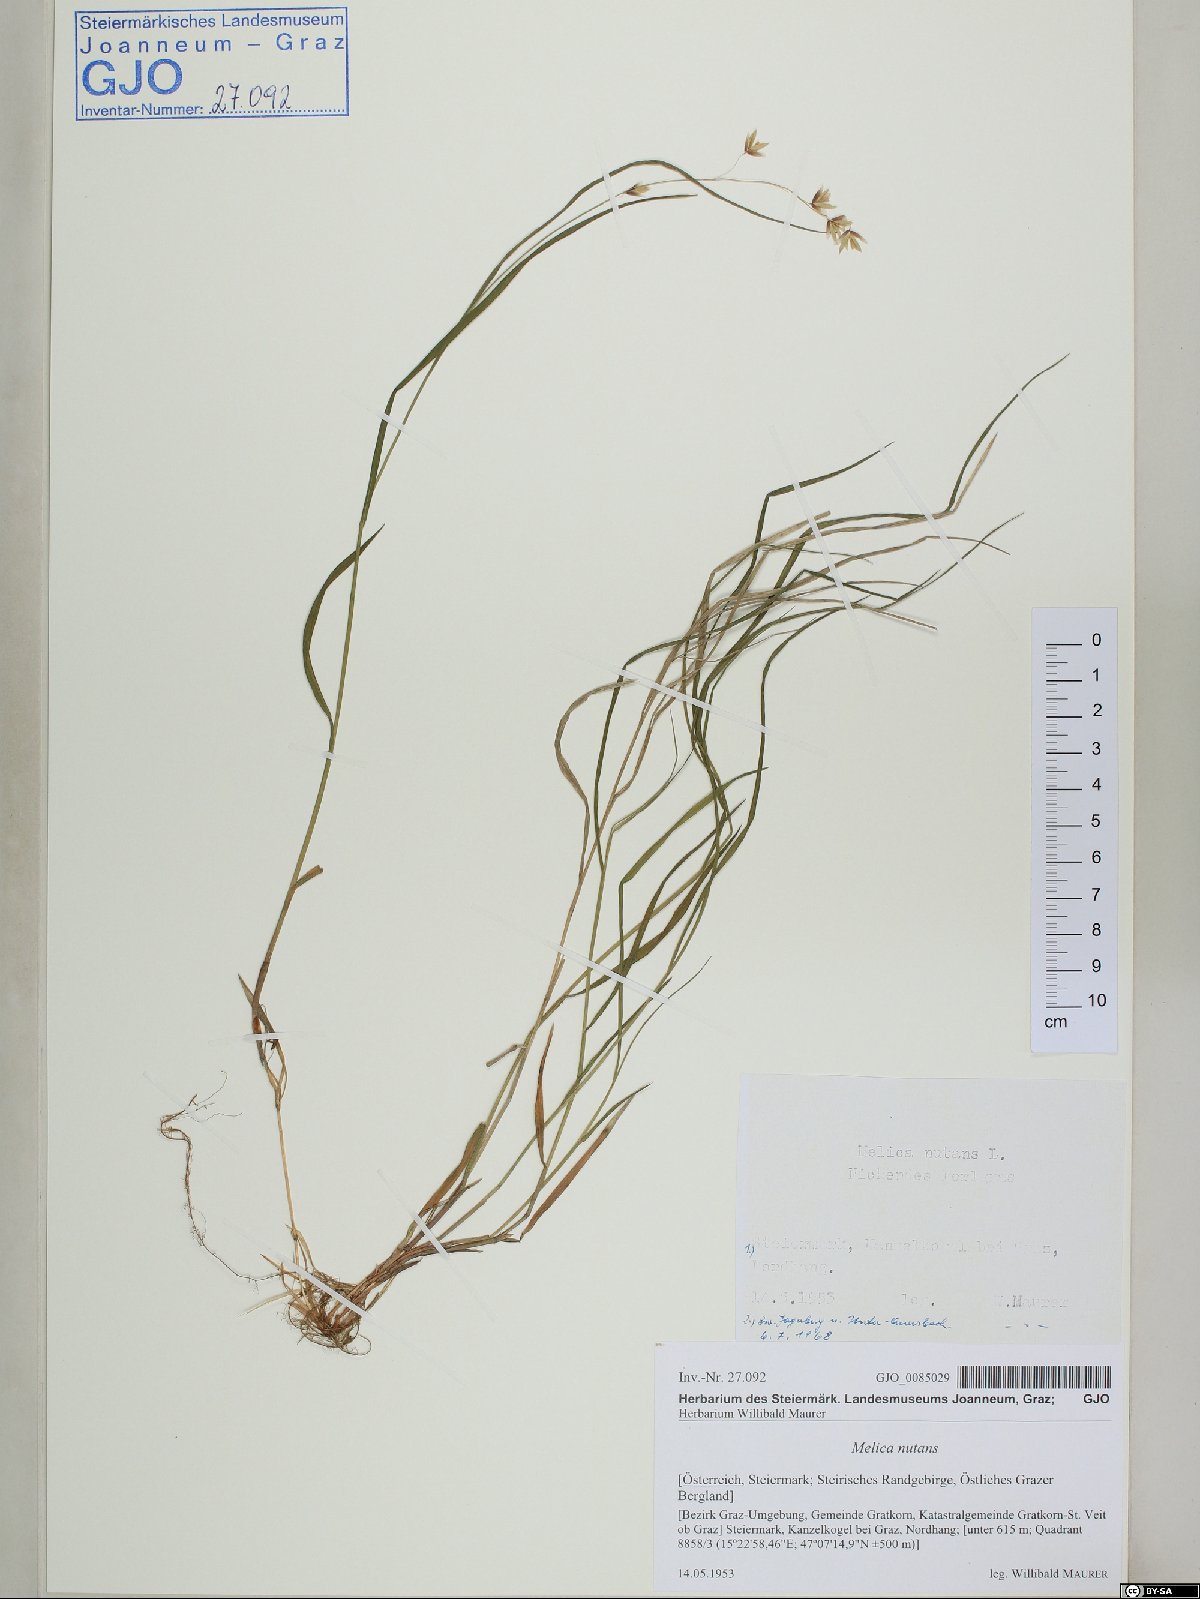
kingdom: Plantae
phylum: Tracheophyta
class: Liliopsida
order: Poales
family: Poaceae
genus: Melica
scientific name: Melica nutans
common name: Mountain melick
